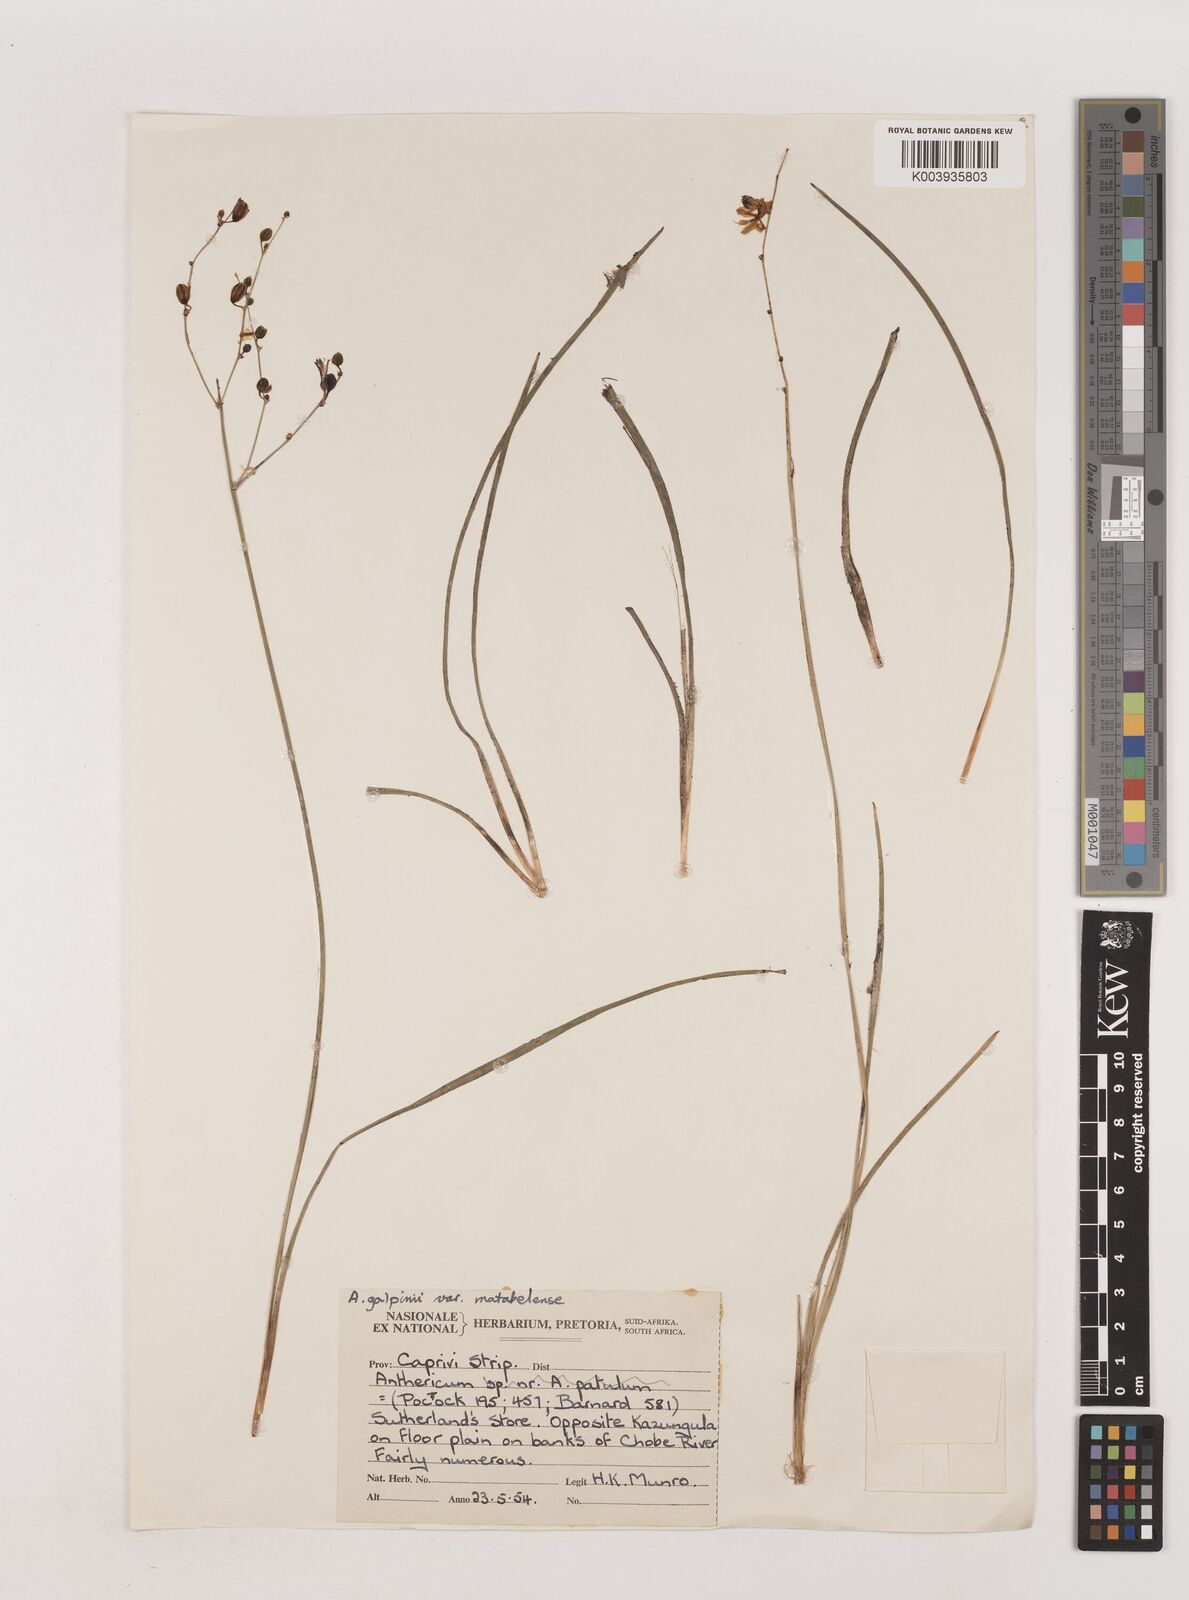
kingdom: Plantae
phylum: Tracheophyta
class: Liliopsida
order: Asparagales
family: Asparagaceae
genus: Chlorophytum
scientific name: Chlorophytum galpinii
